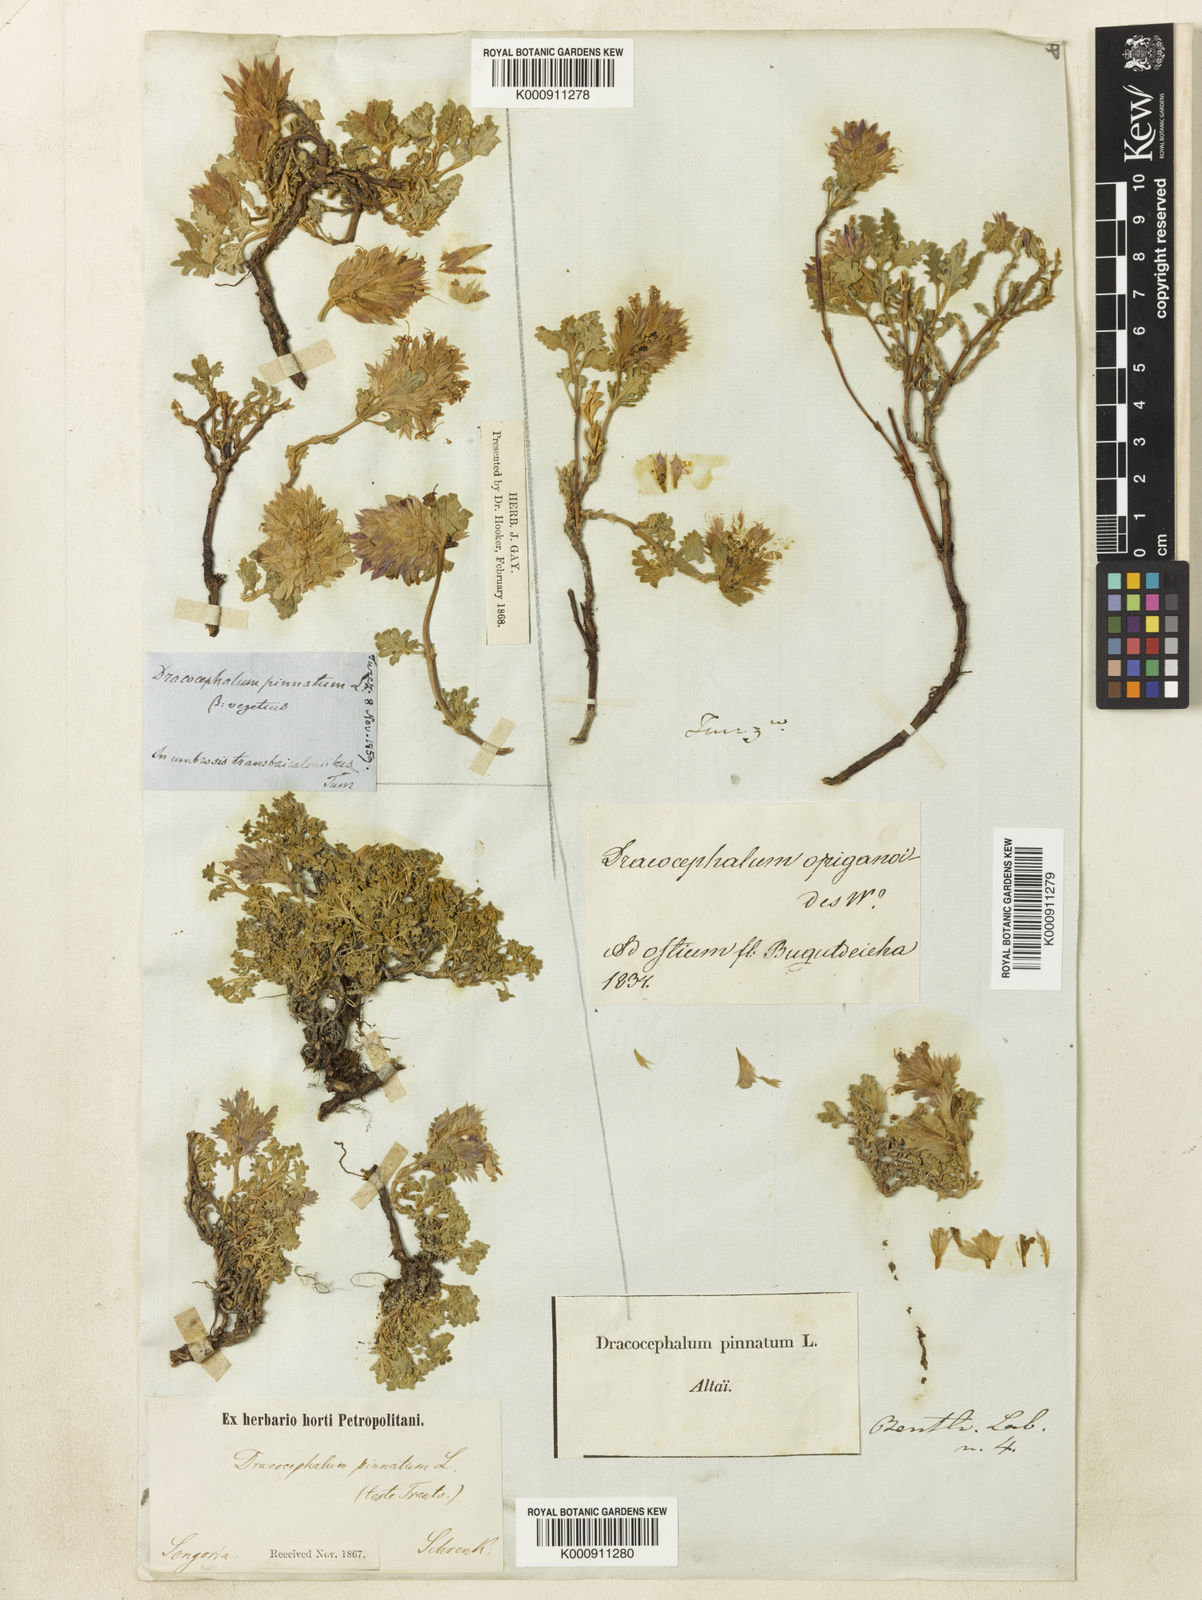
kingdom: Plantae
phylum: Tracheophyta
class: Magnoliopsida
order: Lamiales
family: Lamiaceae
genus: Dracocephalum
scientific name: Dracocephalum pinnatum
